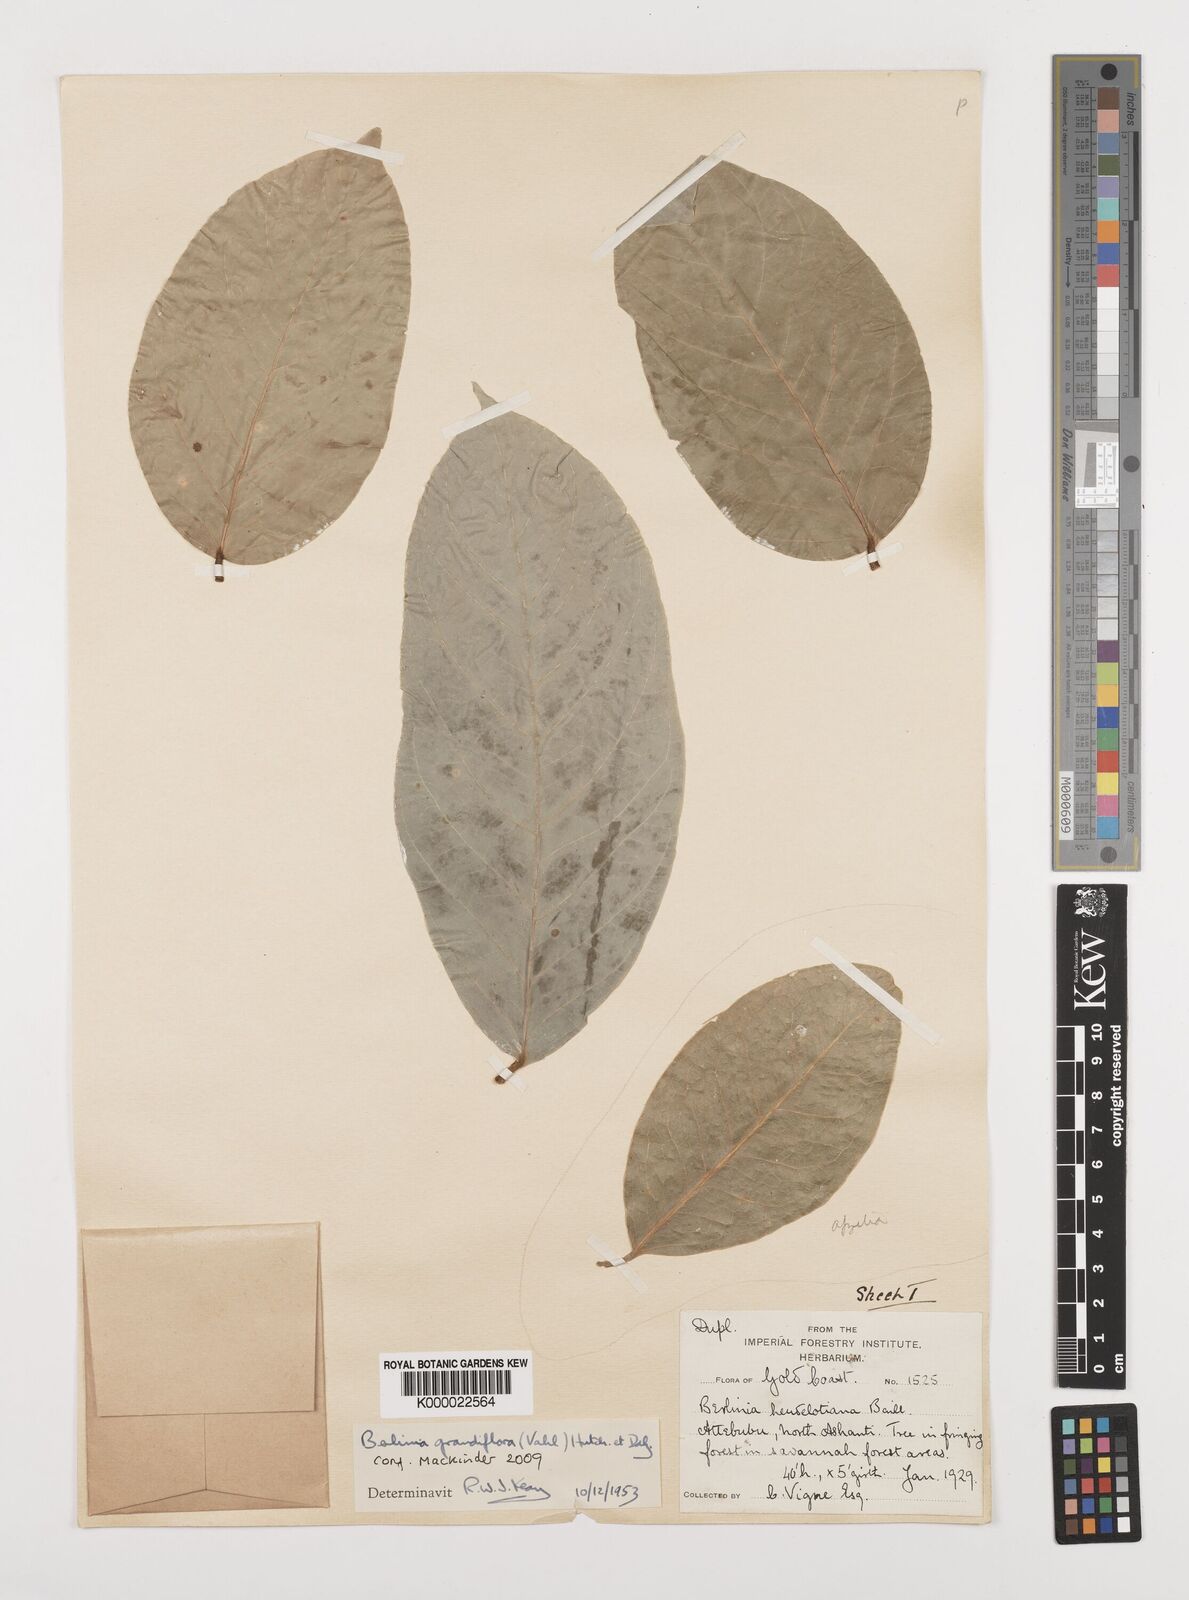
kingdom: Plantae
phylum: Tracheophyta
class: Magnoliopsida
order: Fabales
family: Fabaceae
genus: Berlinia
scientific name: Berlinia grandiflora
